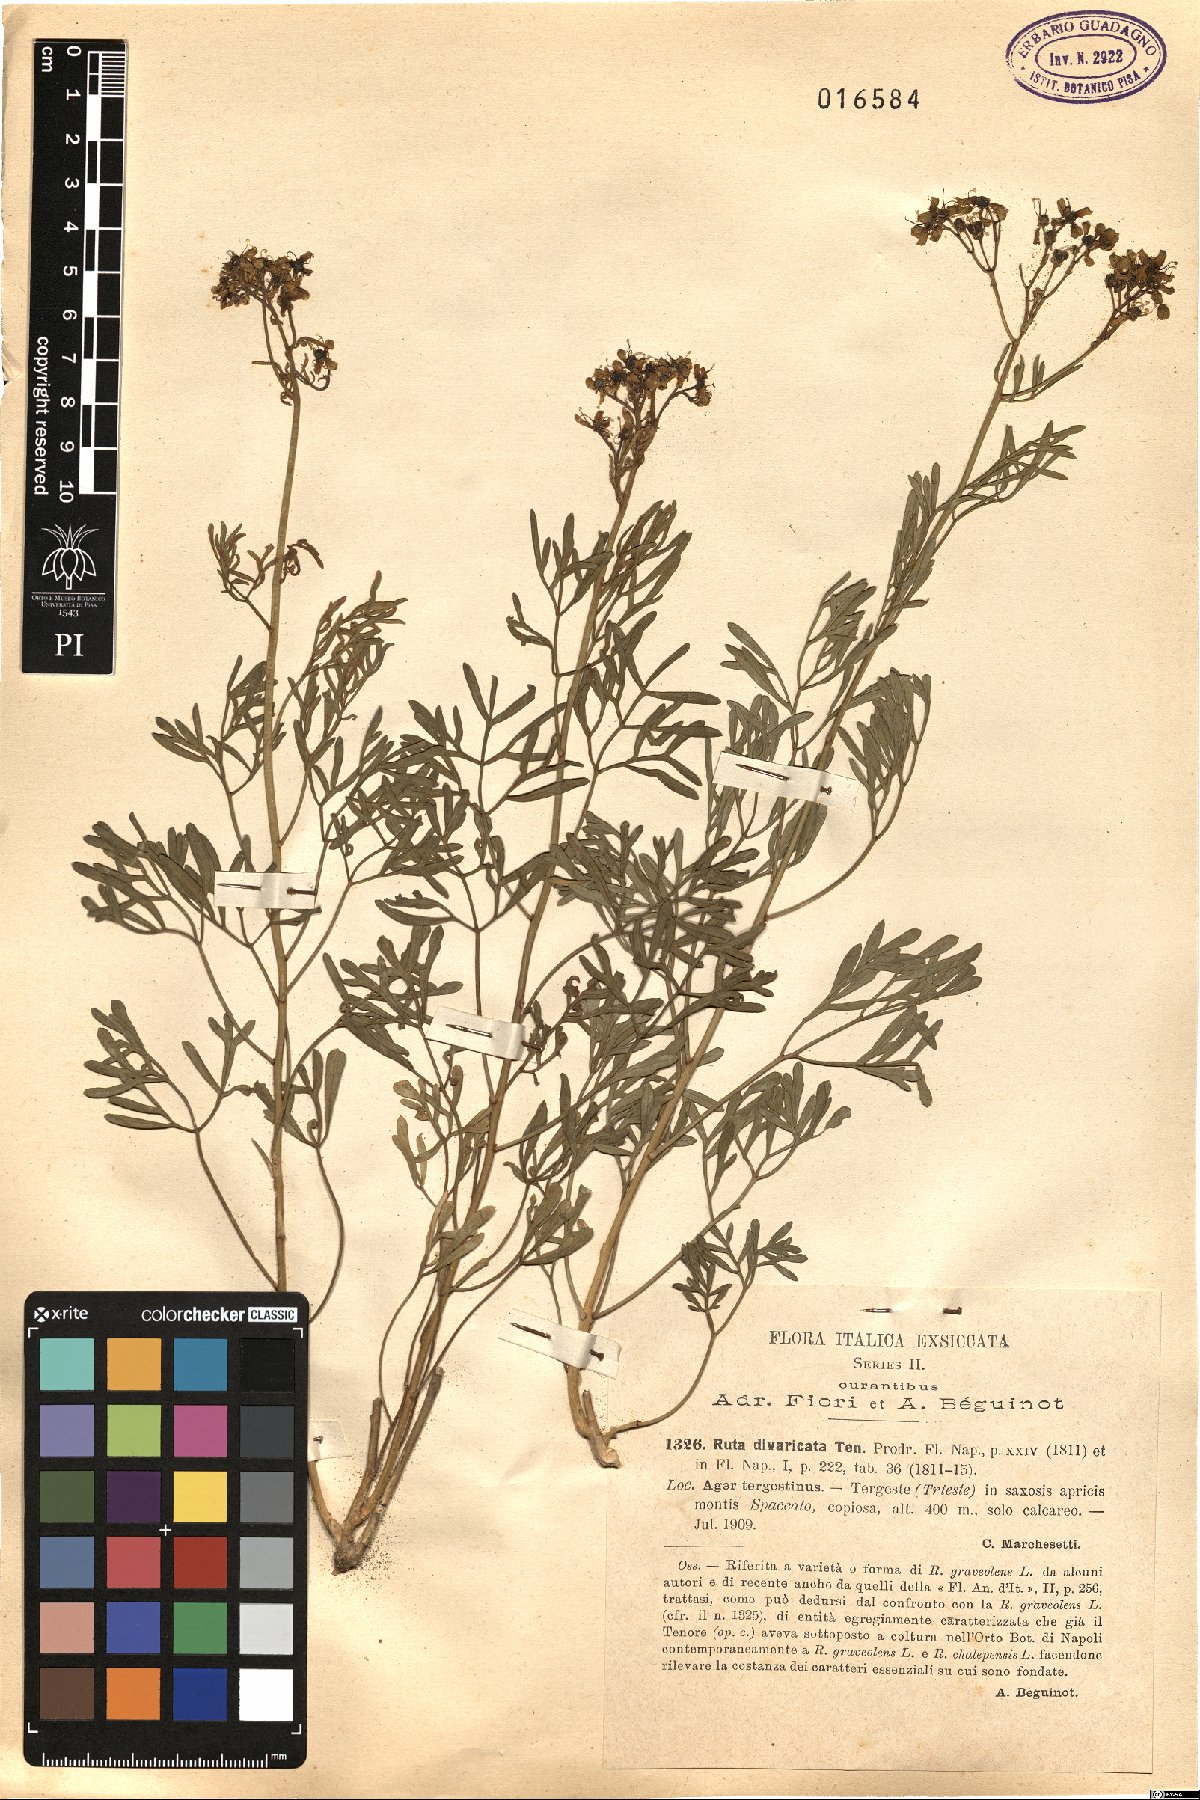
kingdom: Plantae
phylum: Tracheophyta
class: Magnoliopsida
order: Sapindales
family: Rutaceae
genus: Ruta
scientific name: Ruta graveolens
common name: Common rue
